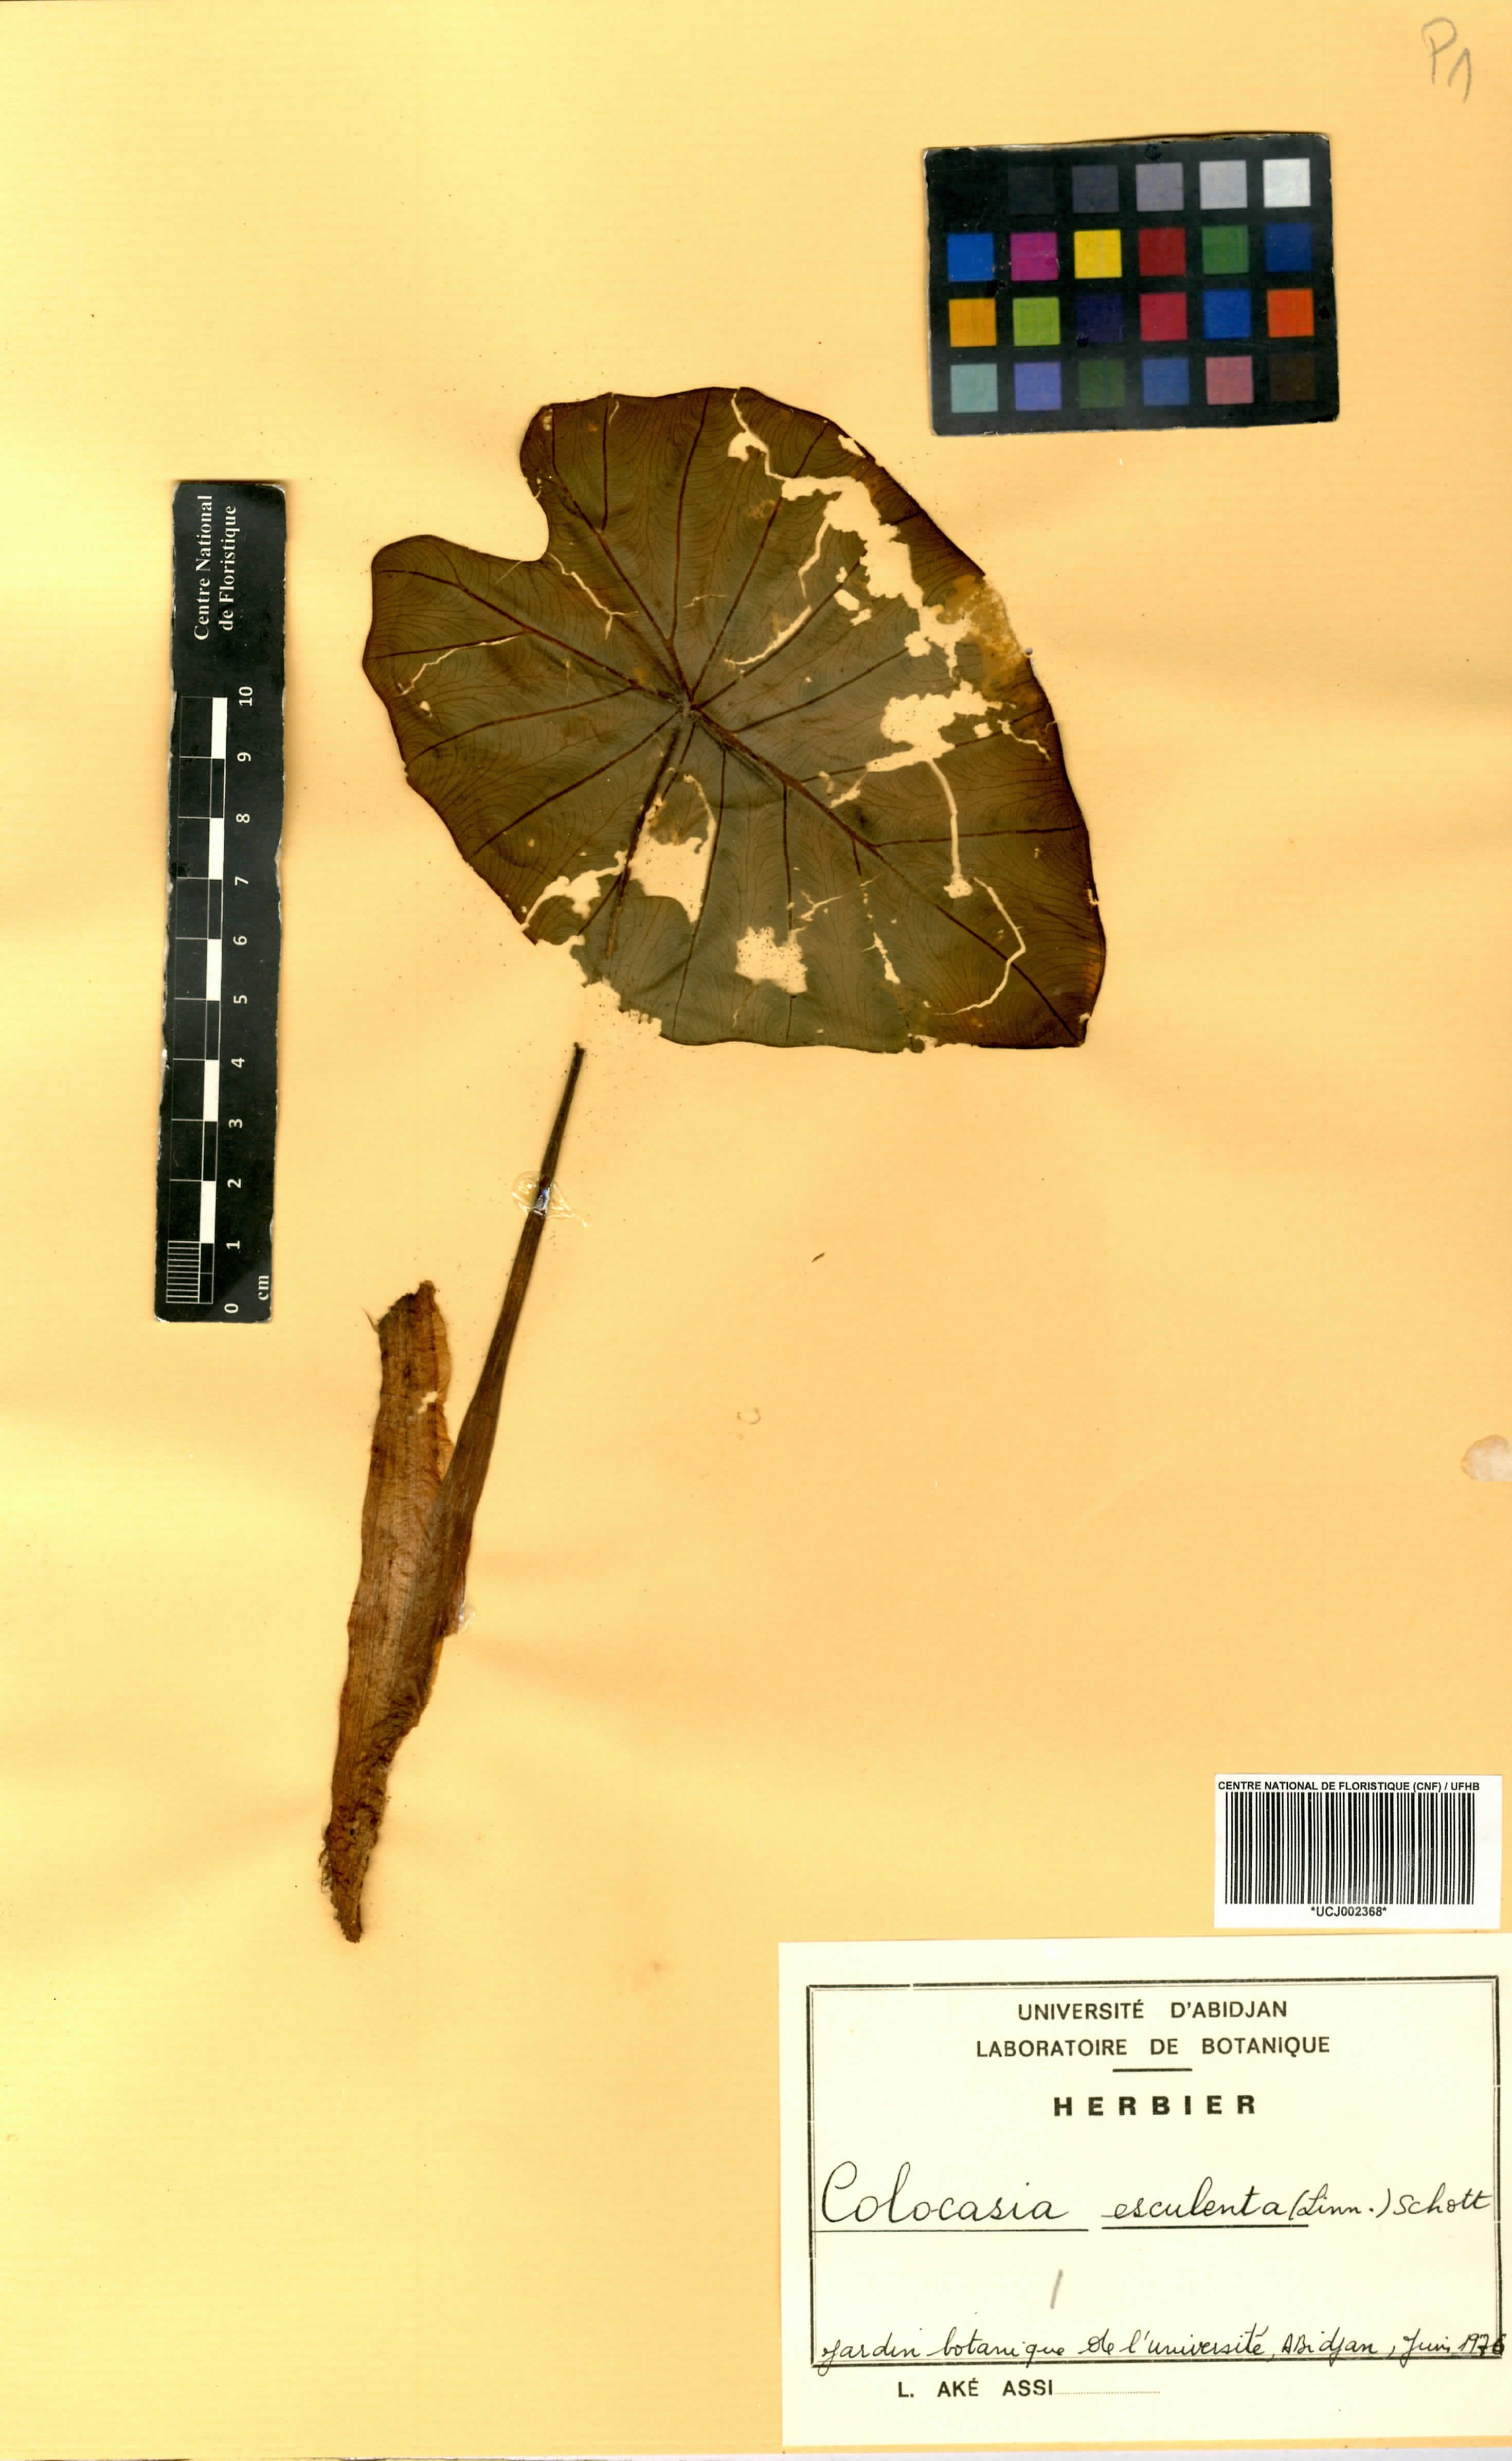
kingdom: Plantae
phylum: Tracheophyta
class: Liliopsida
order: Alismatales
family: Araceae
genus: Colocasia
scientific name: Colocasia esculenta
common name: Taro
